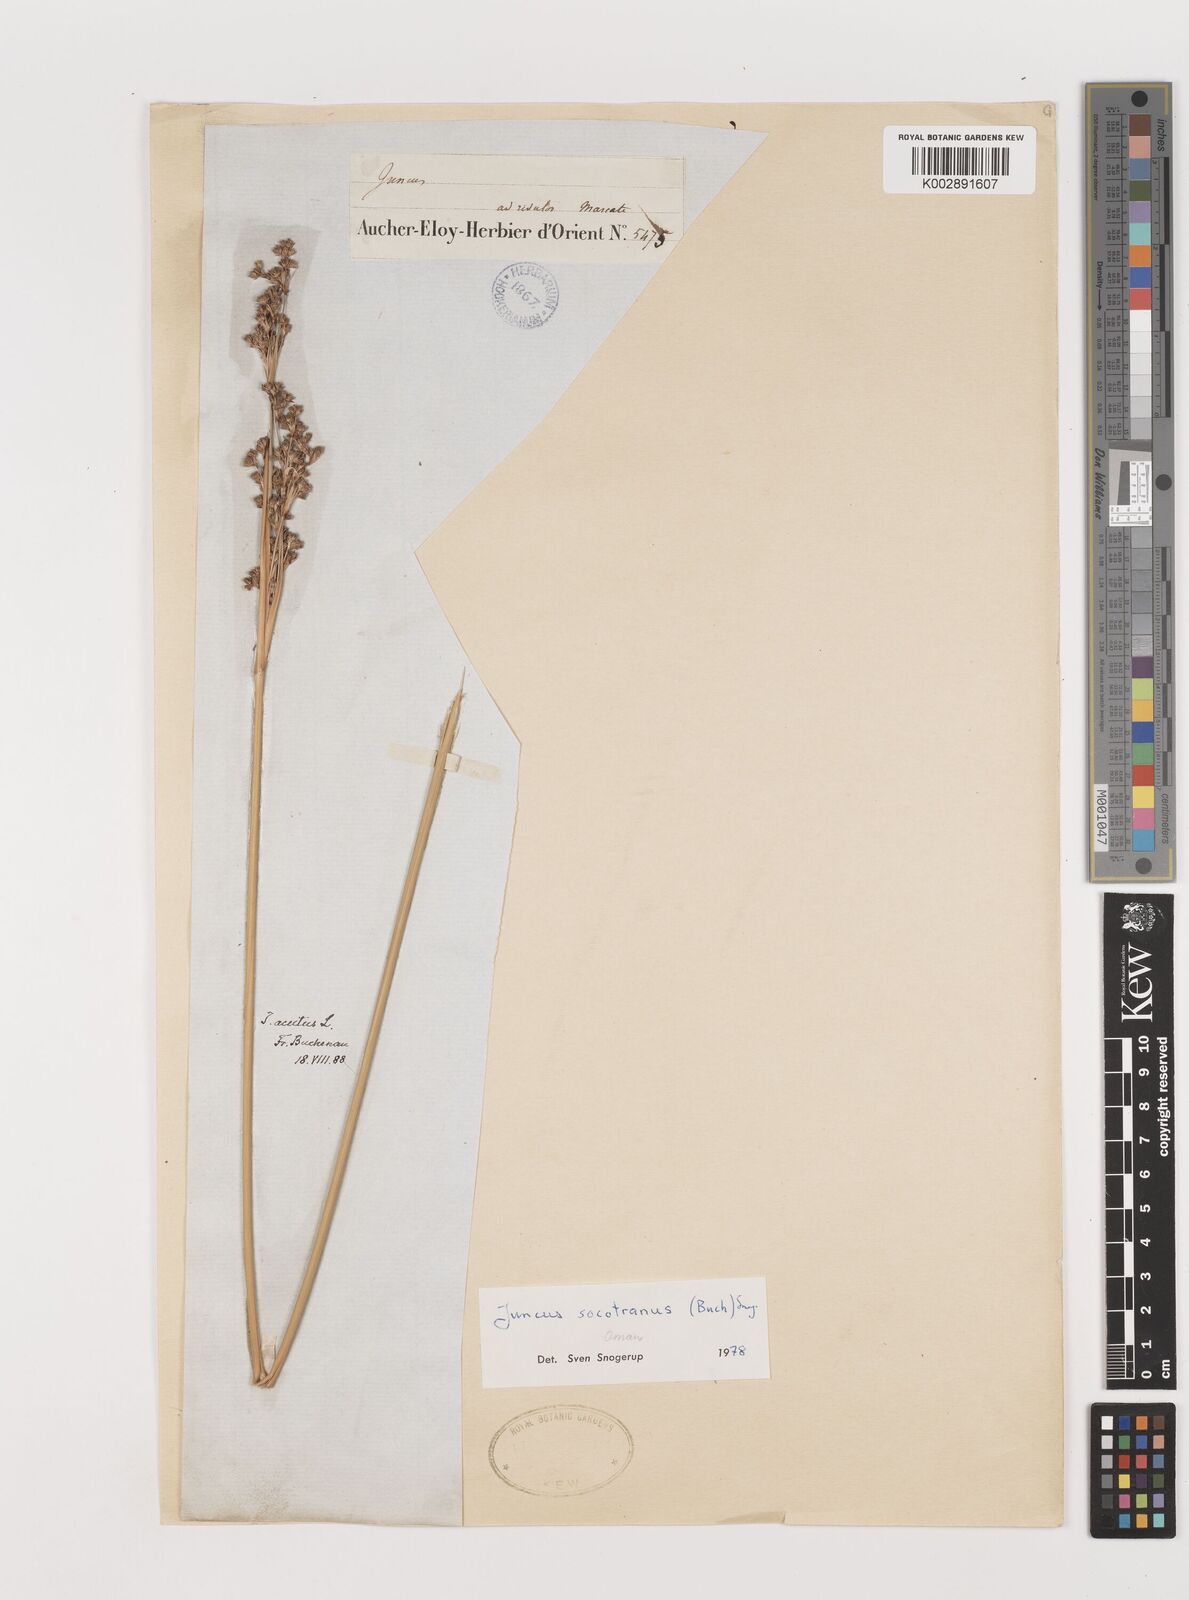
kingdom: Plantae
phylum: Tracheophyta
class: Liliopsida
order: Poales
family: Juncaceae
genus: Juncus
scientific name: Juncus socotranus
